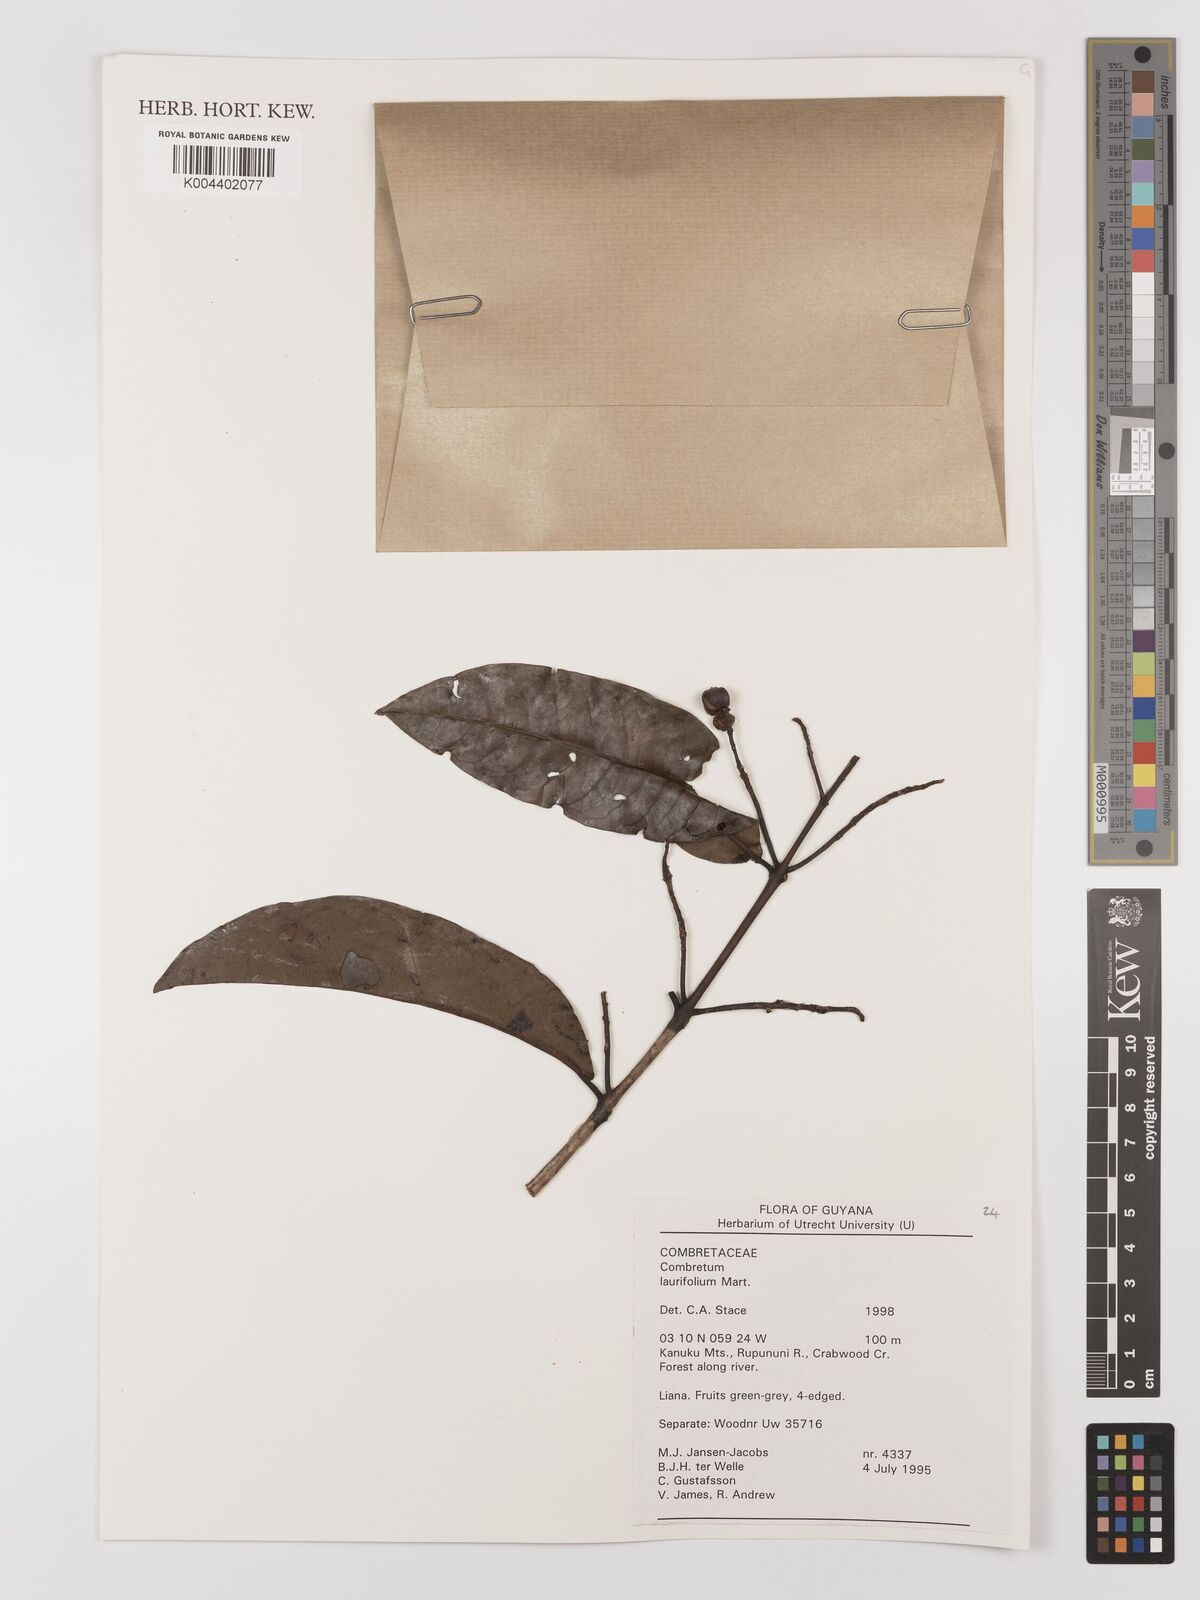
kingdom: Plantae
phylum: Tracheophyta
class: Magnoliopsida
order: Myrtales
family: Combretaceae
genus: Combretum
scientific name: Combretum
